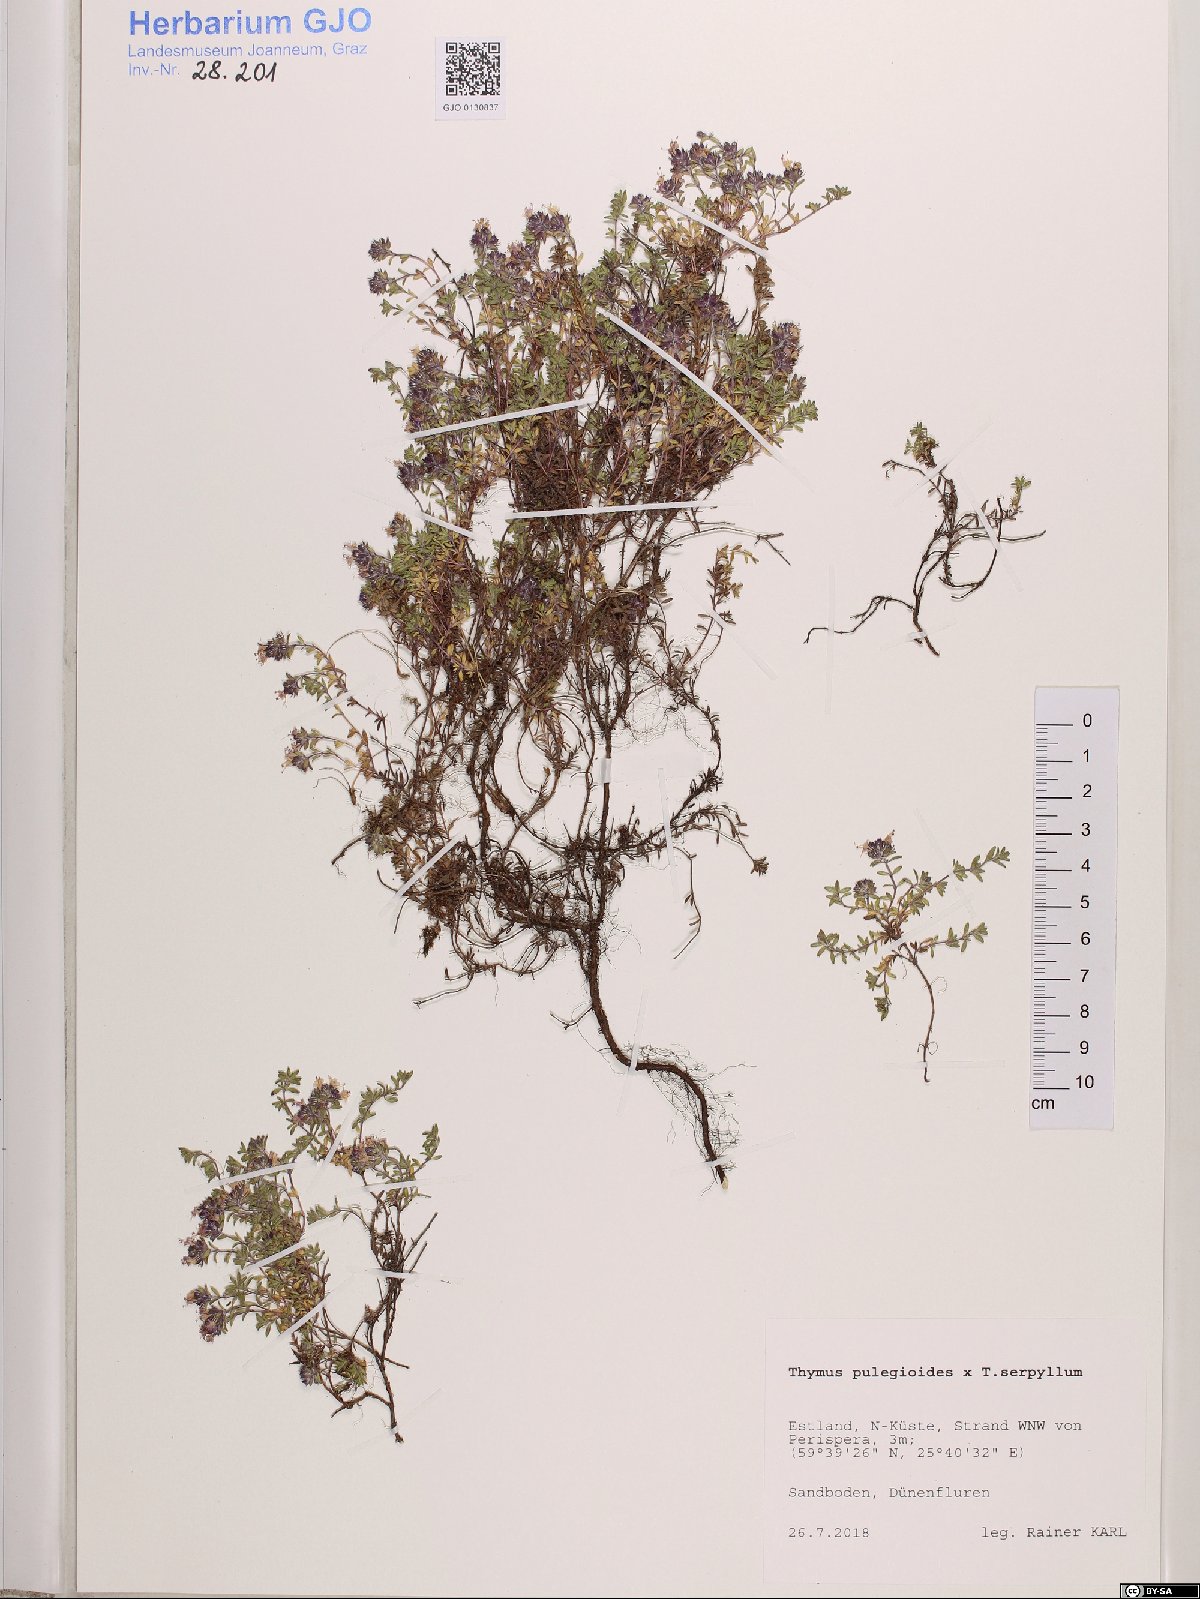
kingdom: Plantae
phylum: Tracheophyta
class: Magnoliopsida
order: Lamiales
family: Lamiaceae
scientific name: Lamiaceae
